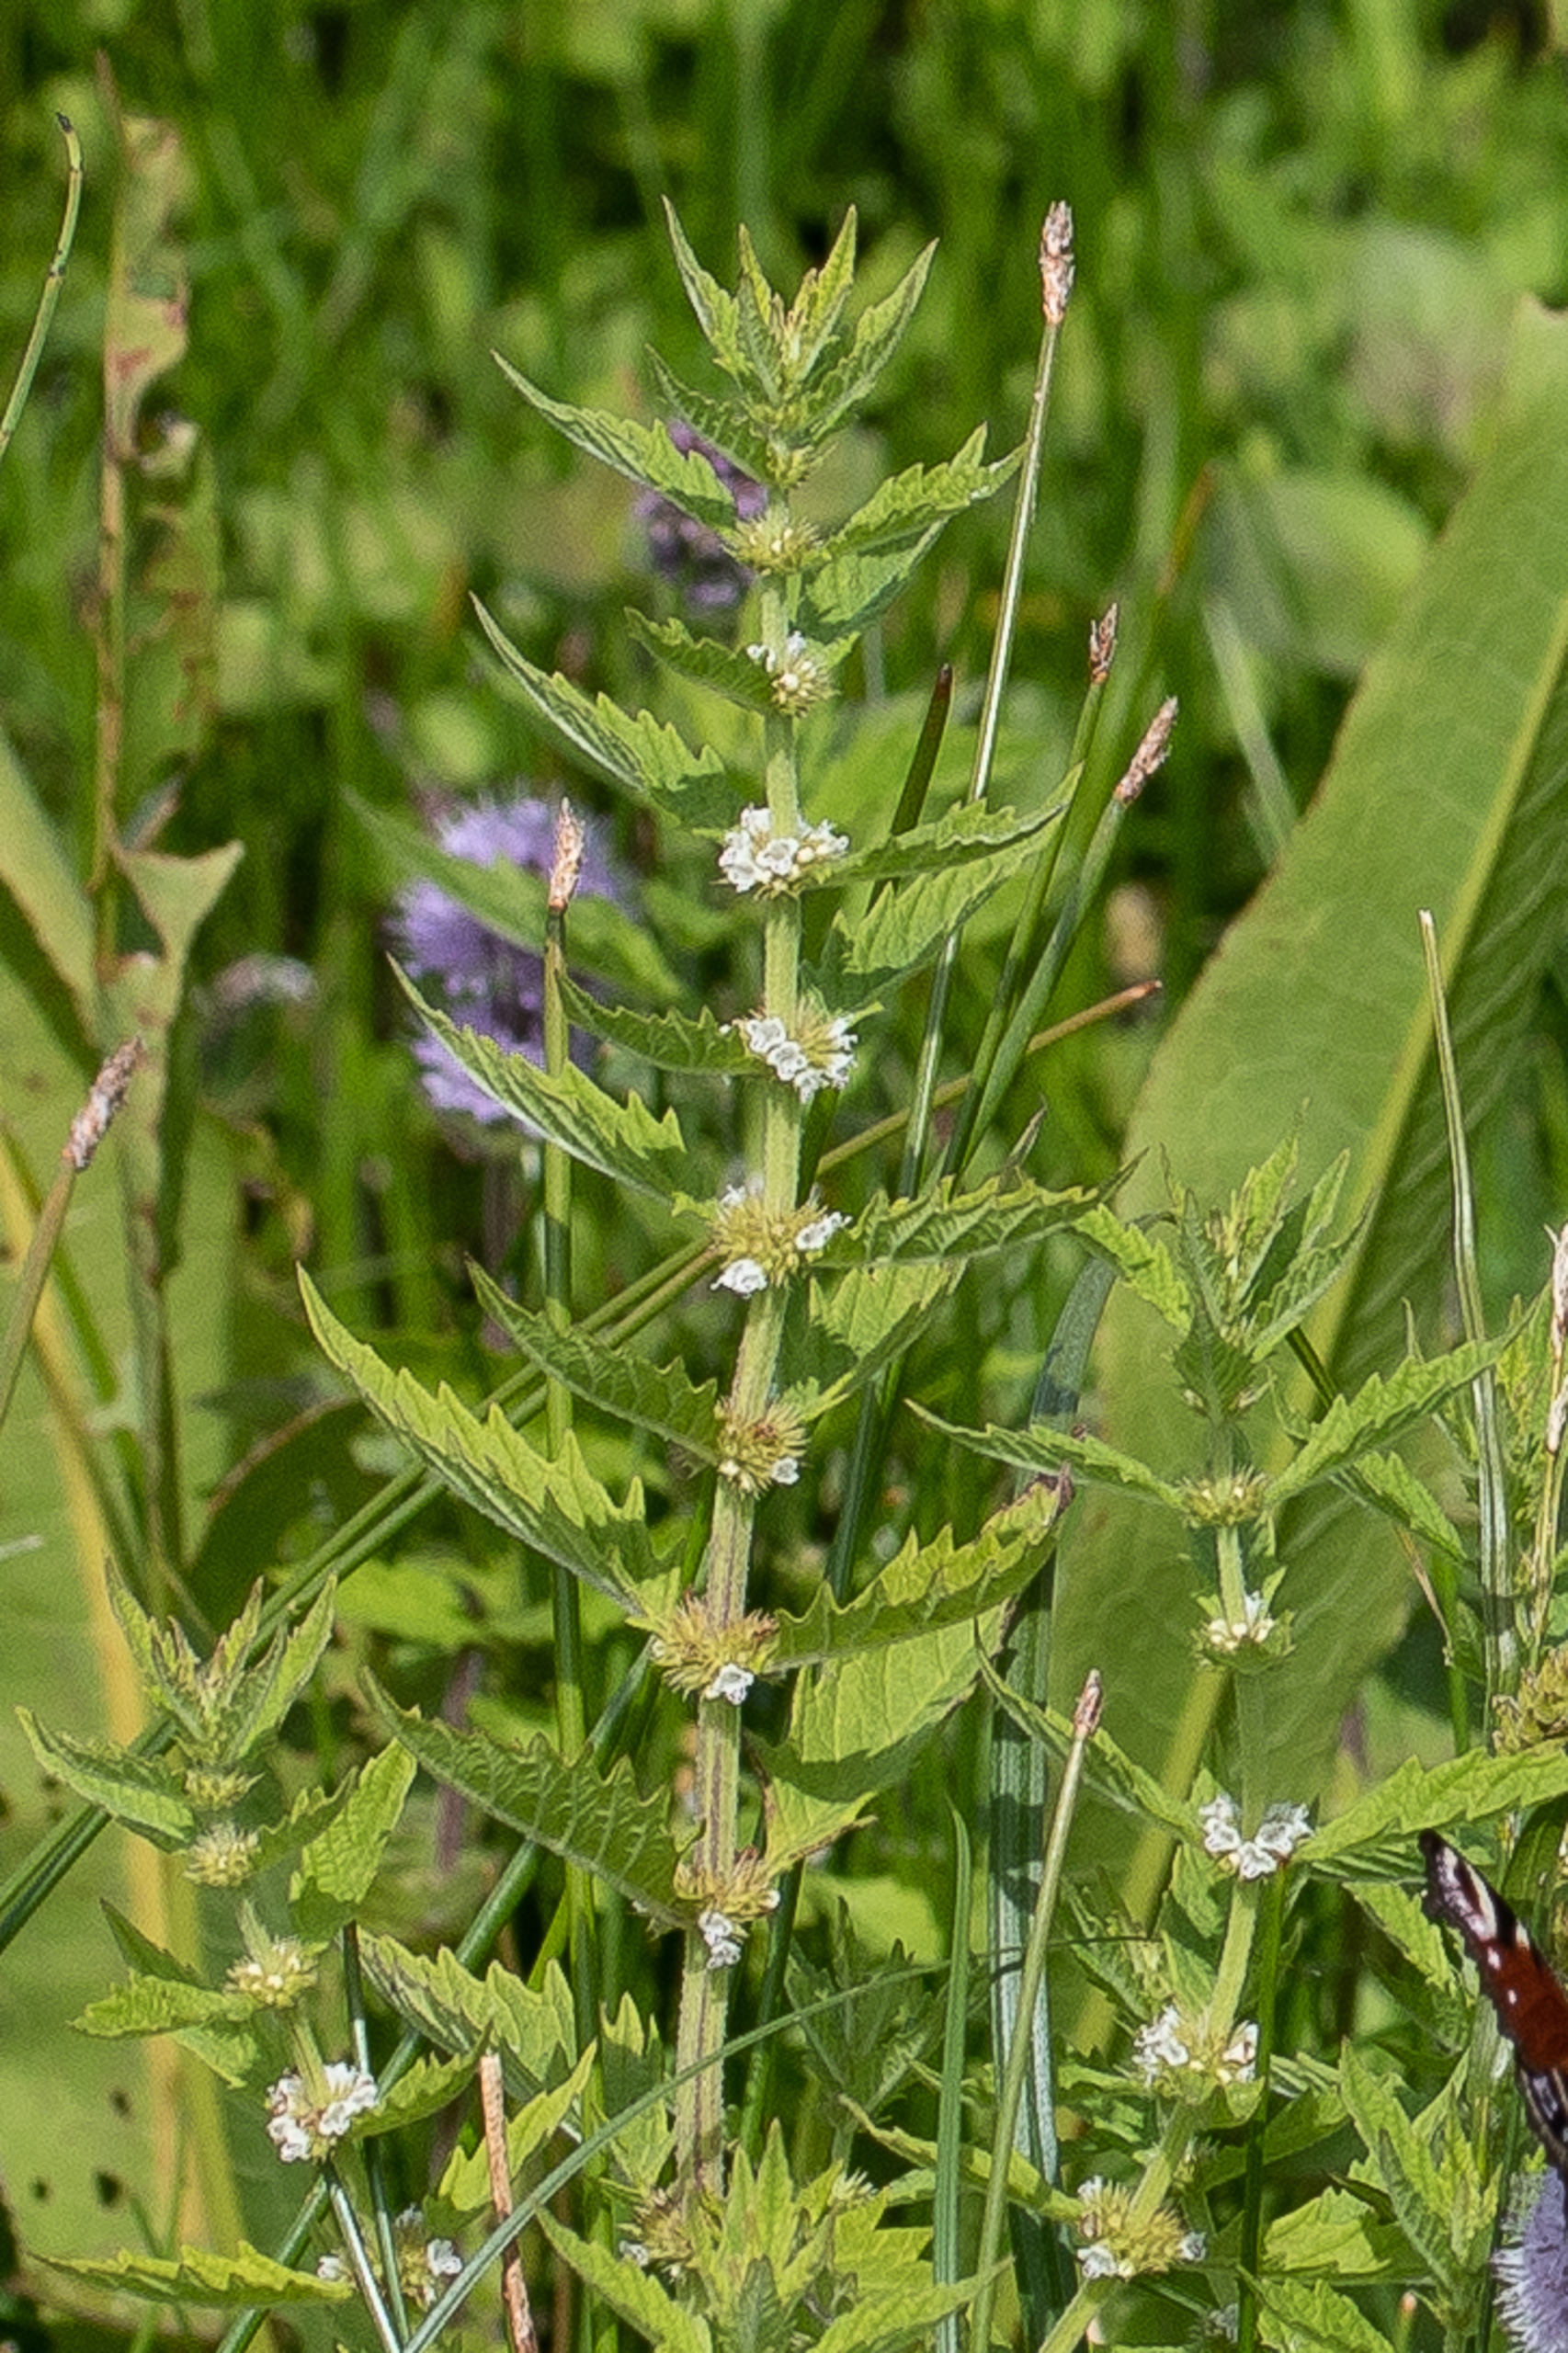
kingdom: Plantae
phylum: Tracheophyta
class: Magnoliopsida
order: Lamiales
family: Lamiaceae
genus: Lycopus
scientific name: Lycopus europaeus
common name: Sværtevæld
